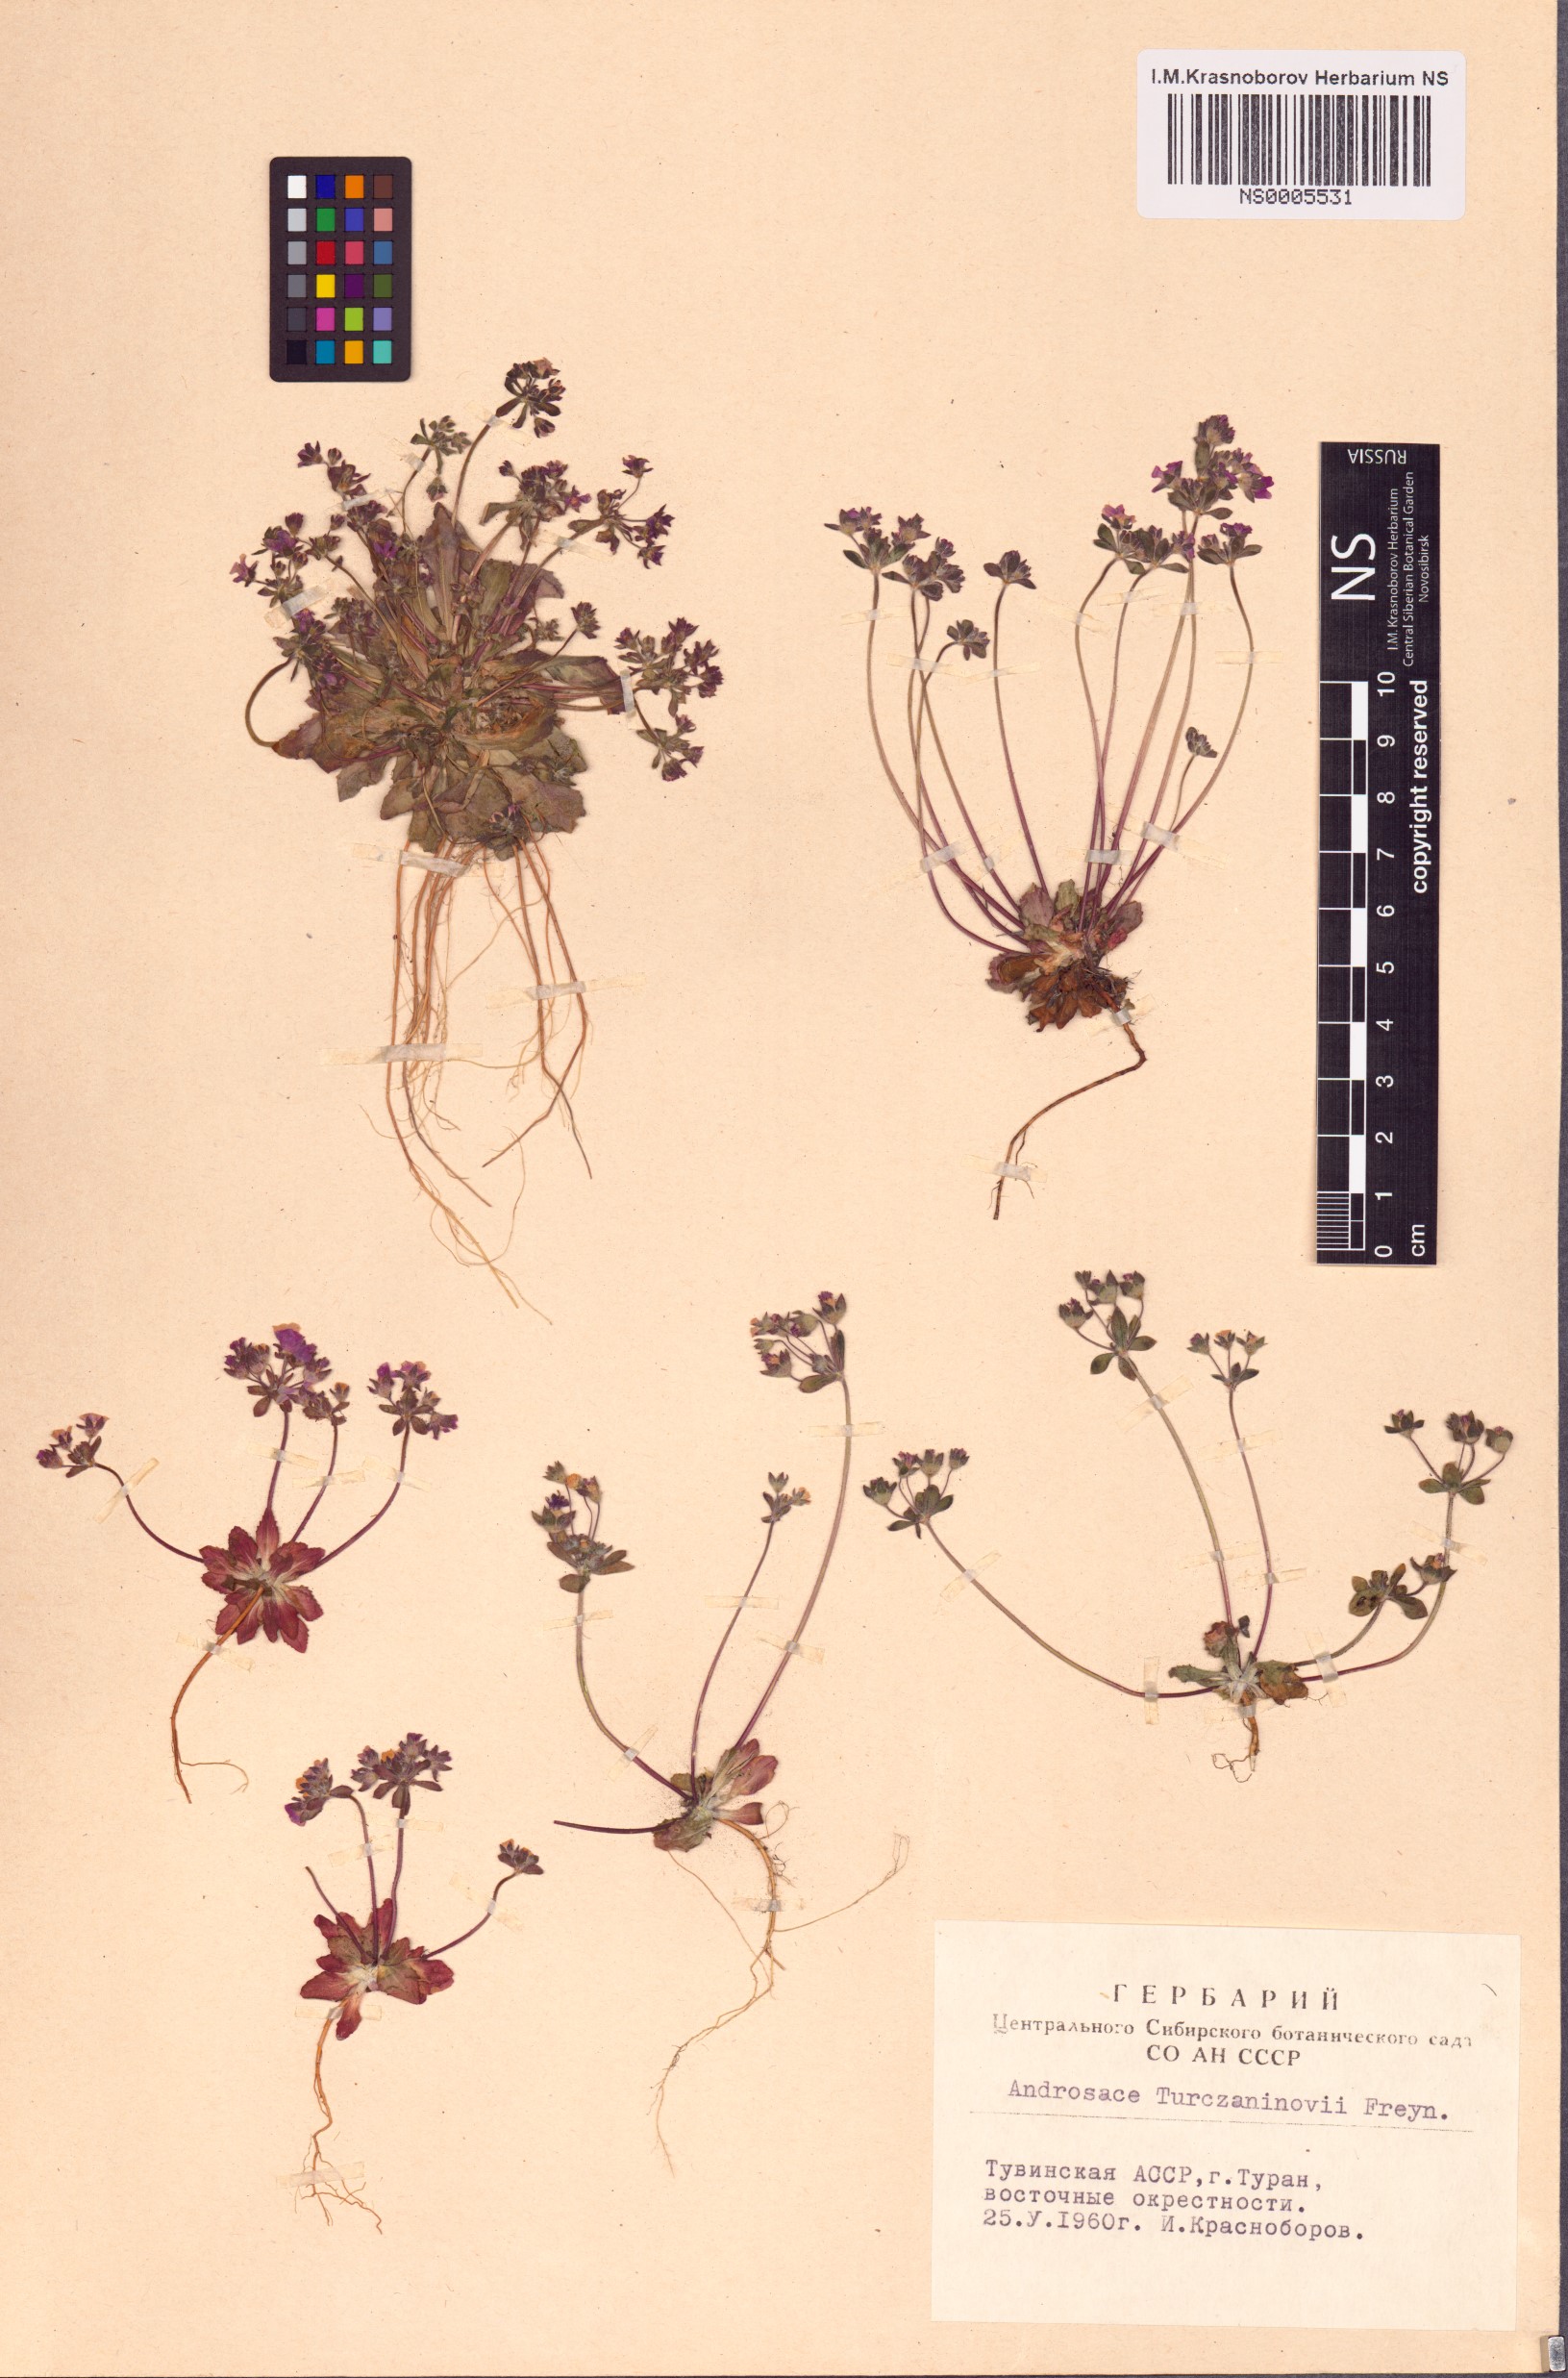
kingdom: Plantae
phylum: Tracheophyta
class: Magnoliopsida
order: Ericales
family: Primulaceae
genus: Androsace
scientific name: Androsace maxima
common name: Annual androsace
